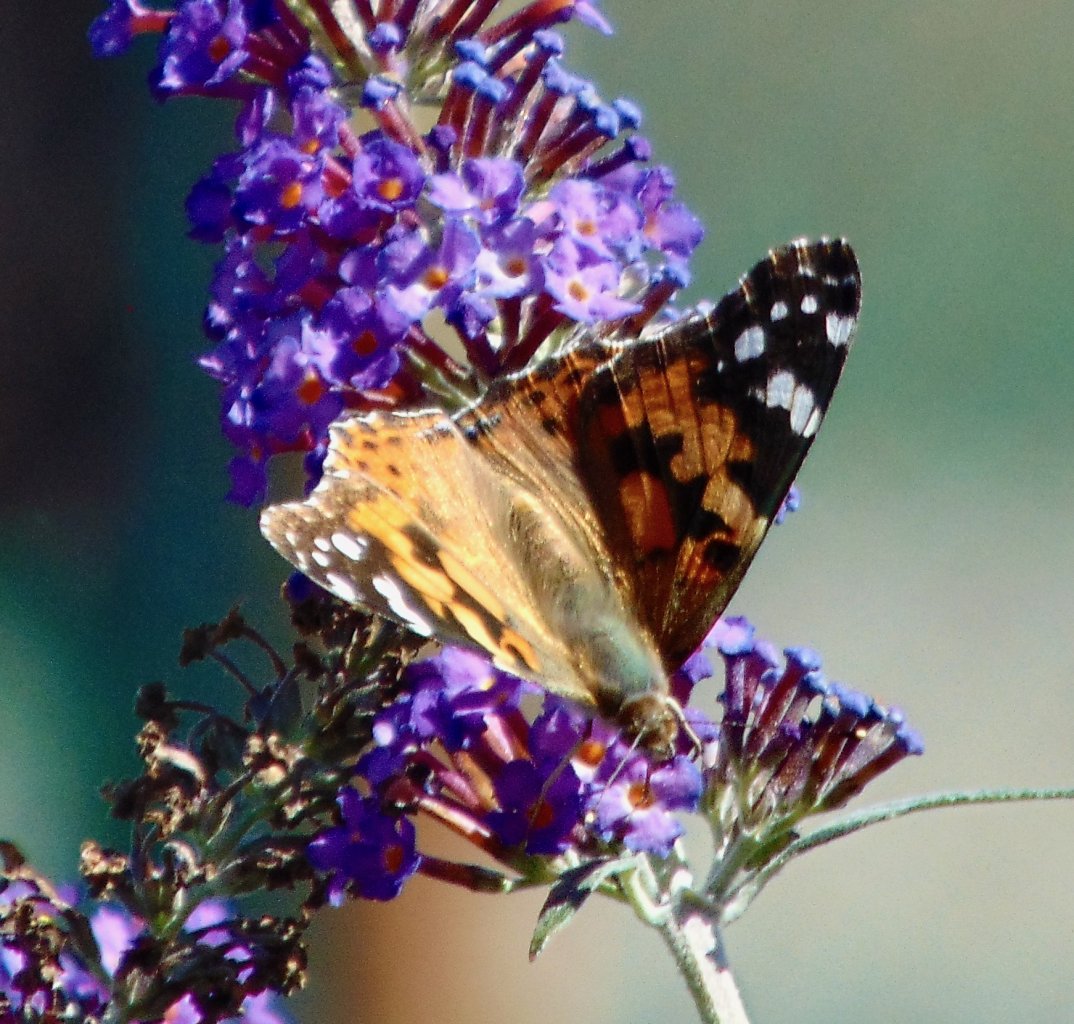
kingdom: Animalia
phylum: Arthropoda
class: Insecta
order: Lepidoptera
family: Nymphalidae
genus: Vanessa
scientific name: Vanessa cardui
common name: Painted Lady
